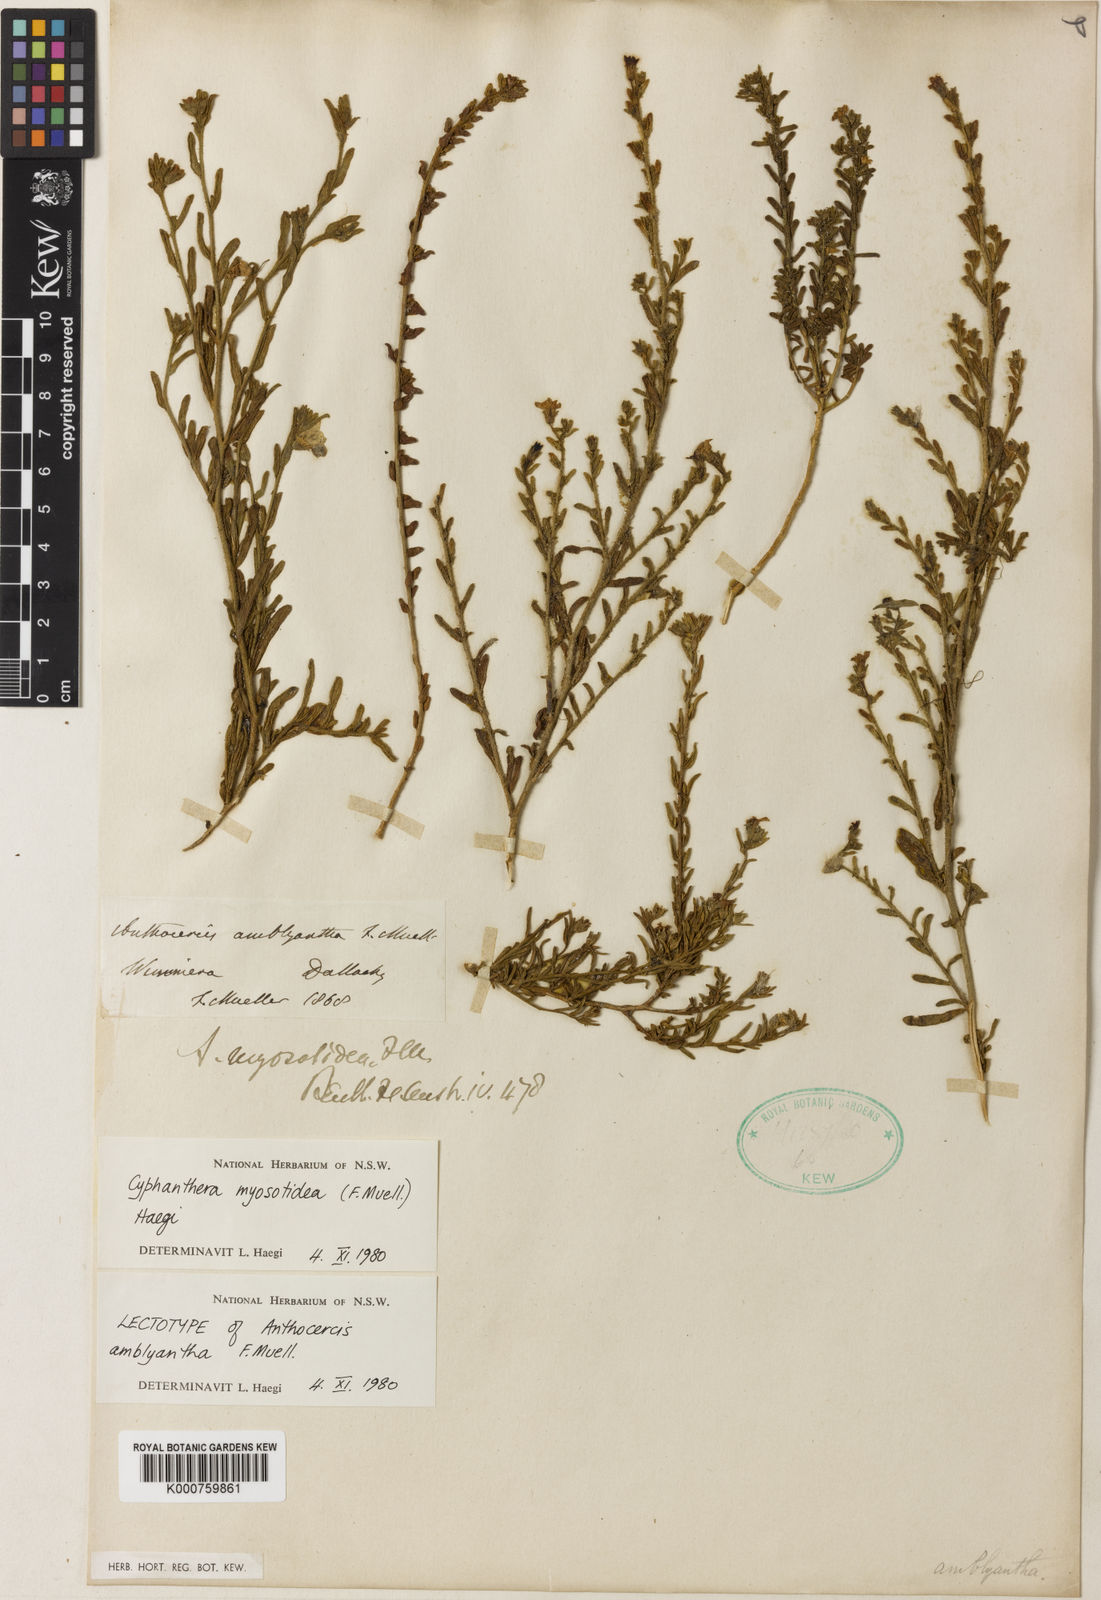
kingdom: Plantae
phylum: Tracheophyta
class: Magnoliopsida
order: Solanales
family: Solanaceae
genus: Cyphanthera
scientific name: Cyphanthera myosotidea
